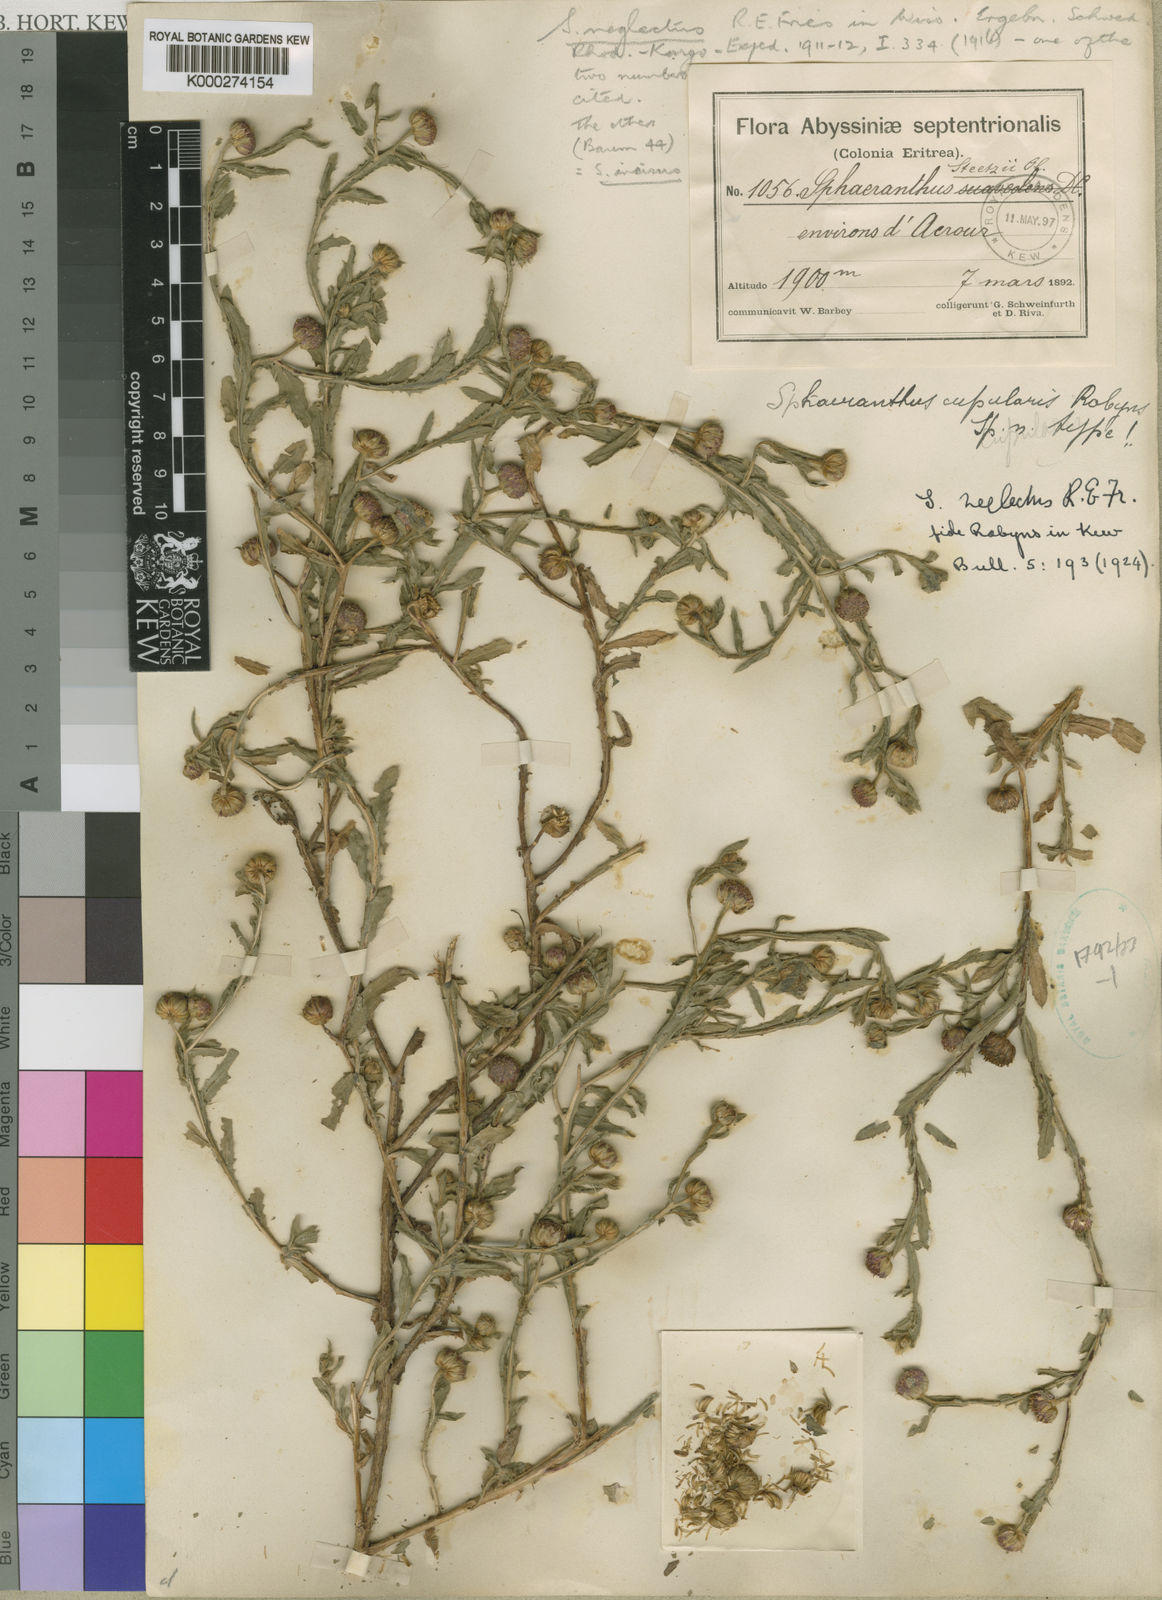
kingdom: Plantae
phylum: Tracheophyta
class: Magnoliopsida
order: Asterales
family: Asteraceae
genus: Sphaeranthus
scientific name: Sphaeranthus neglectus
